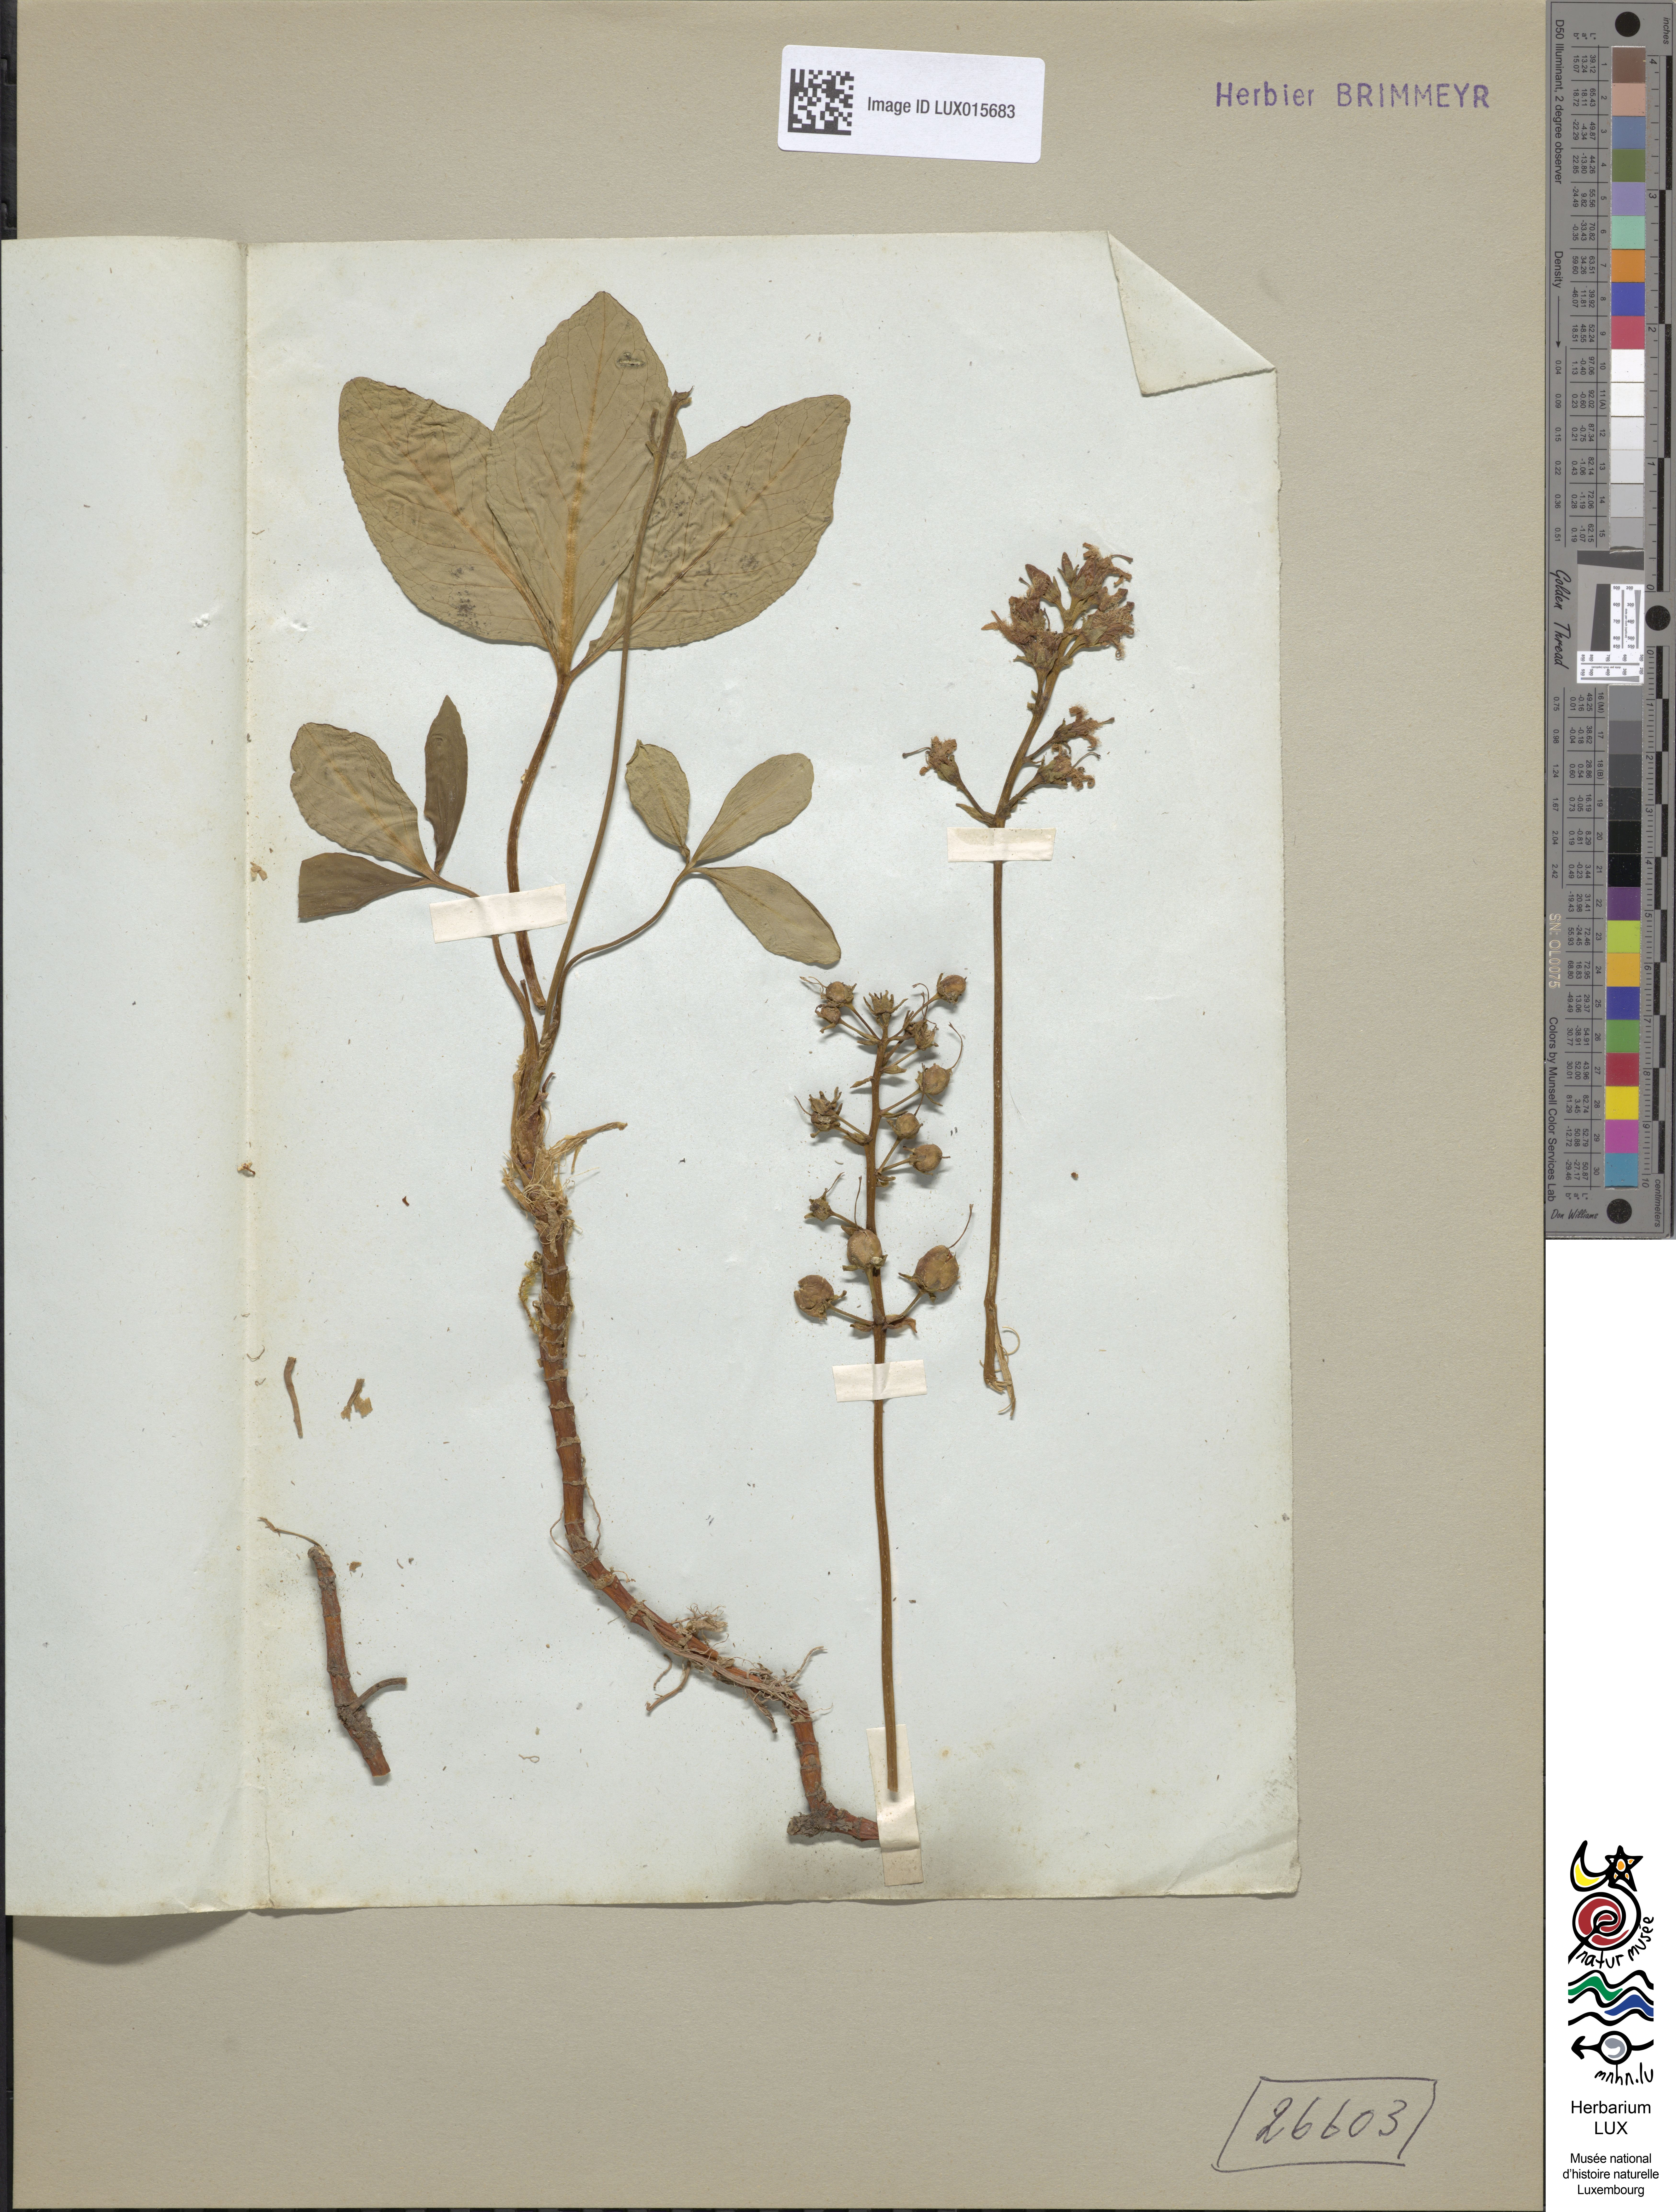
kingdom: Plantae
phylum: Tracheophyta
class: Magnoliopsida
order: Asterales
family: Menyanthaceae
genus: Menyanthes
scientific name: Menyanthes trifoliata
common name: Bogbean
